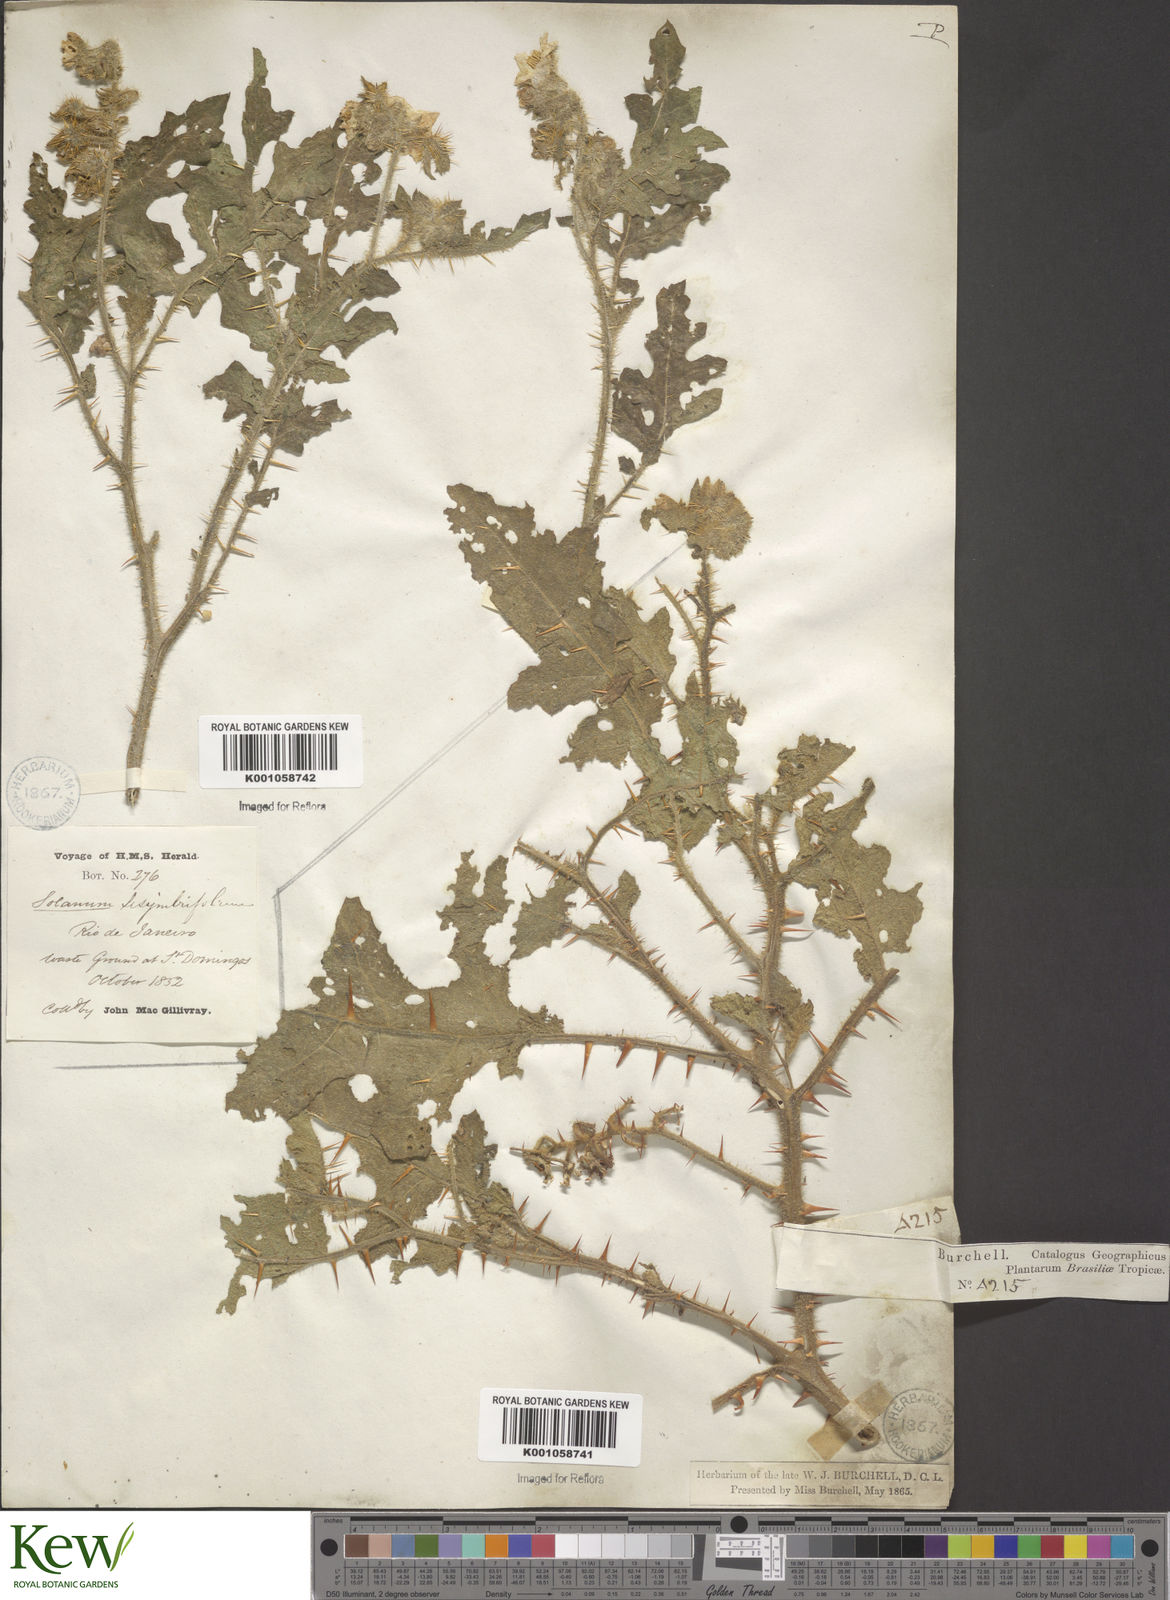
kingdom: Plantae
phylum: Tracheophyta
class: Magnoliopsida
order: Solanales
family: Solanaceae
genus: Solanum
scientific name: Solanum sisymbriifolium
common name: Red buffalo-bur
